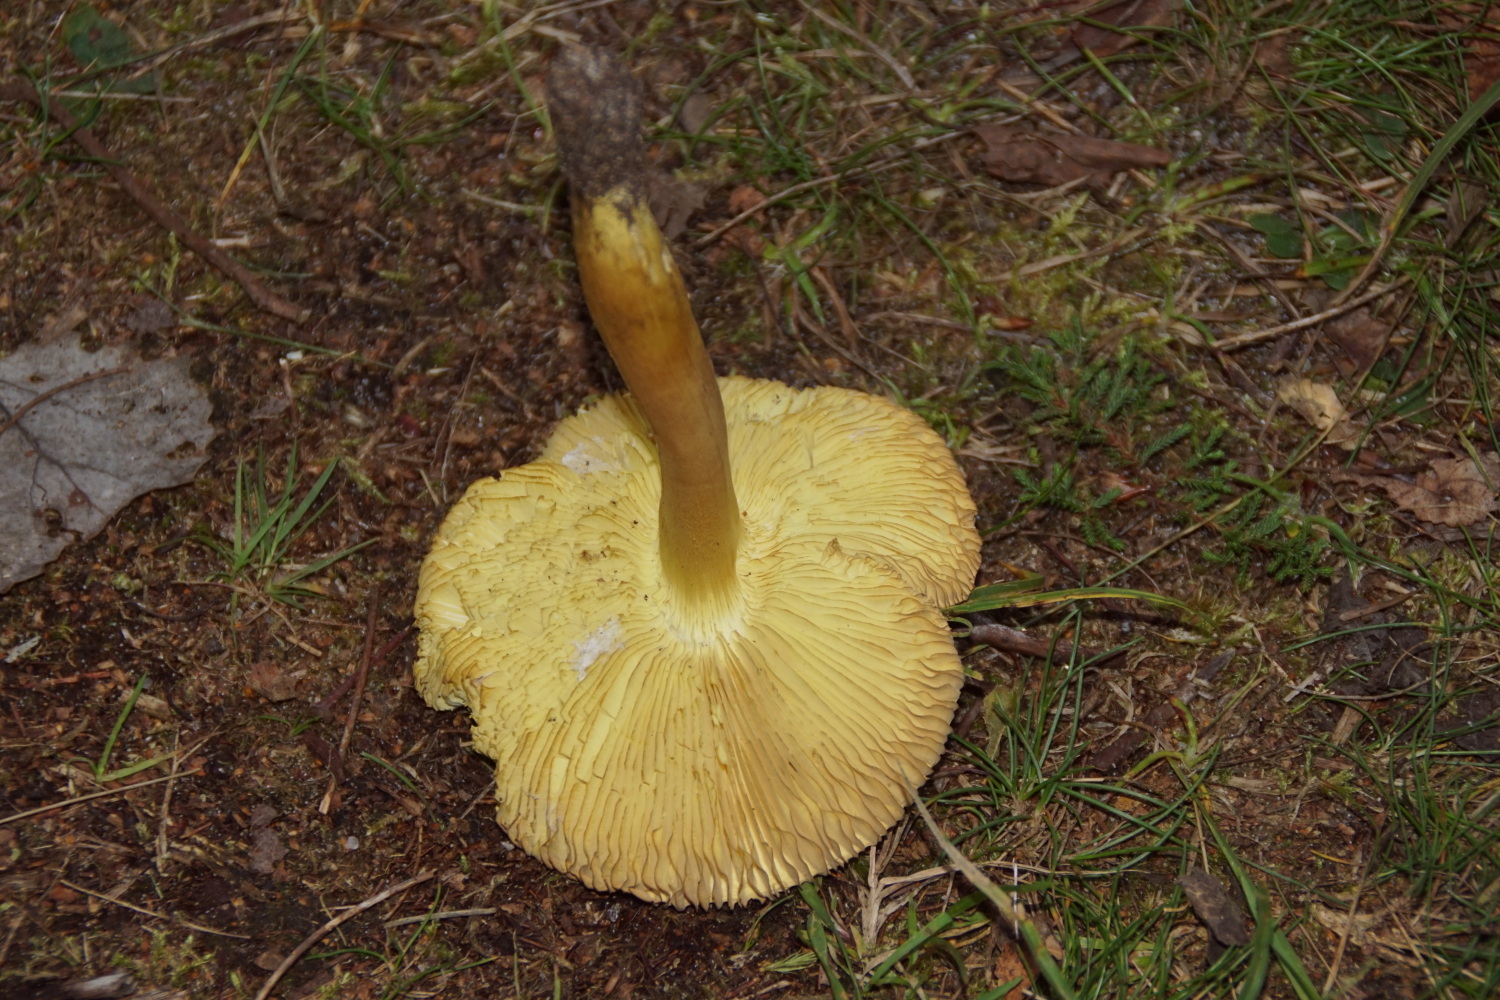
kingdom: Fungi
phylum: Basidiomycota
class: Agaricomycetes
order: Agaricales
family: Tricholomataceae
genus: Tricholoma
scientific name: Tricholoma frondosae
